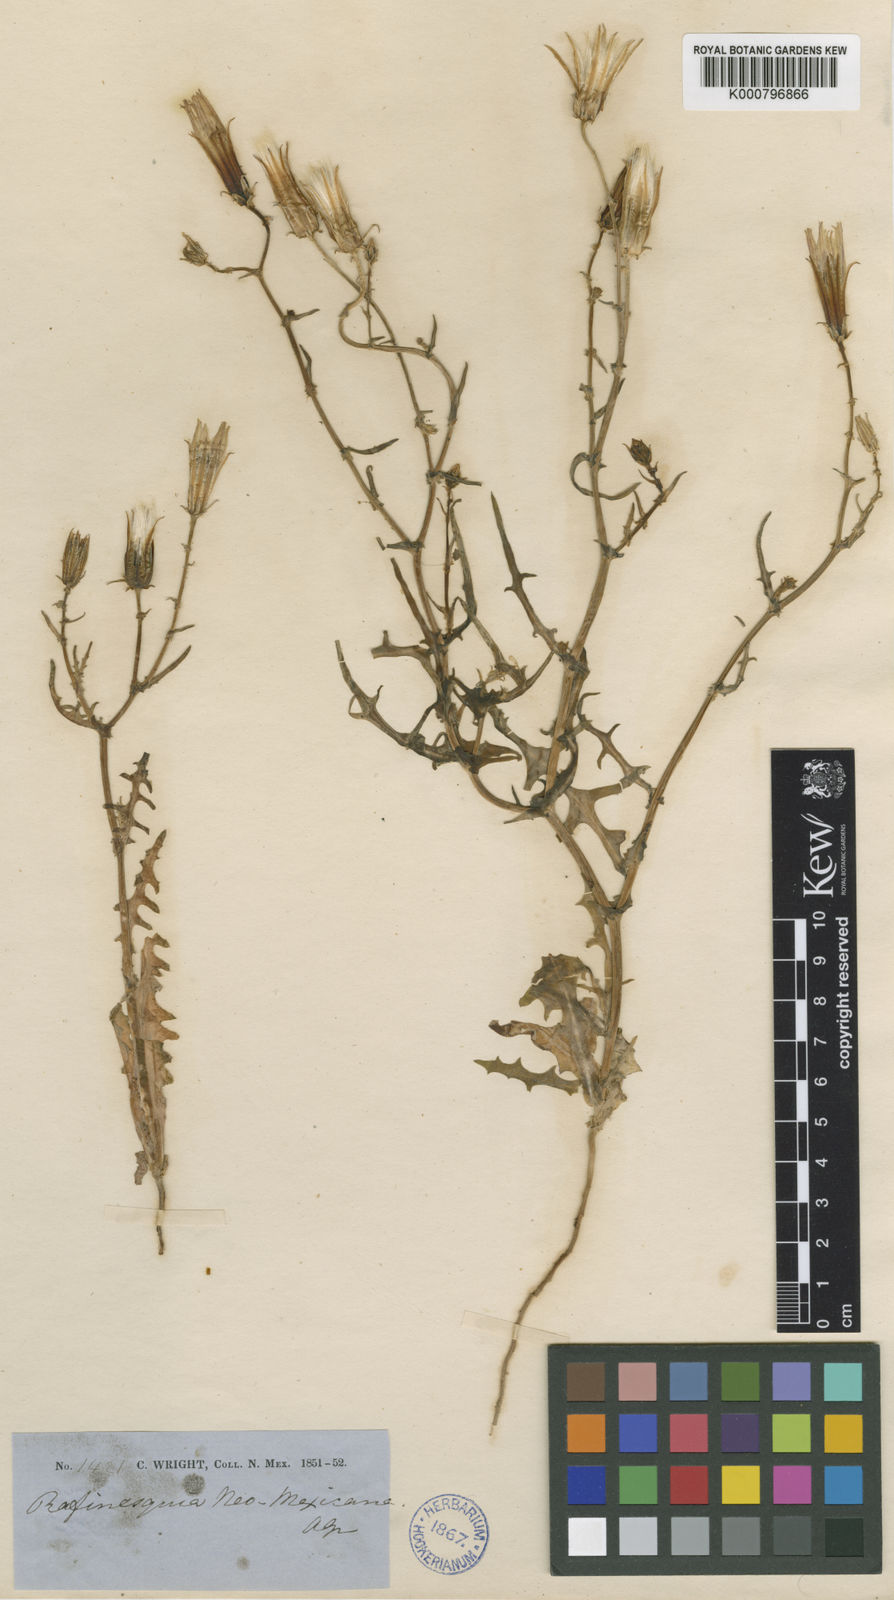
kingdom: Plantae
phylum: Tracheophyta
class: Magnoliopsida
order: Asterales
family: Asteraceae
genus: Rafinesquia
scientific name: Rafinesquia neomexicana
